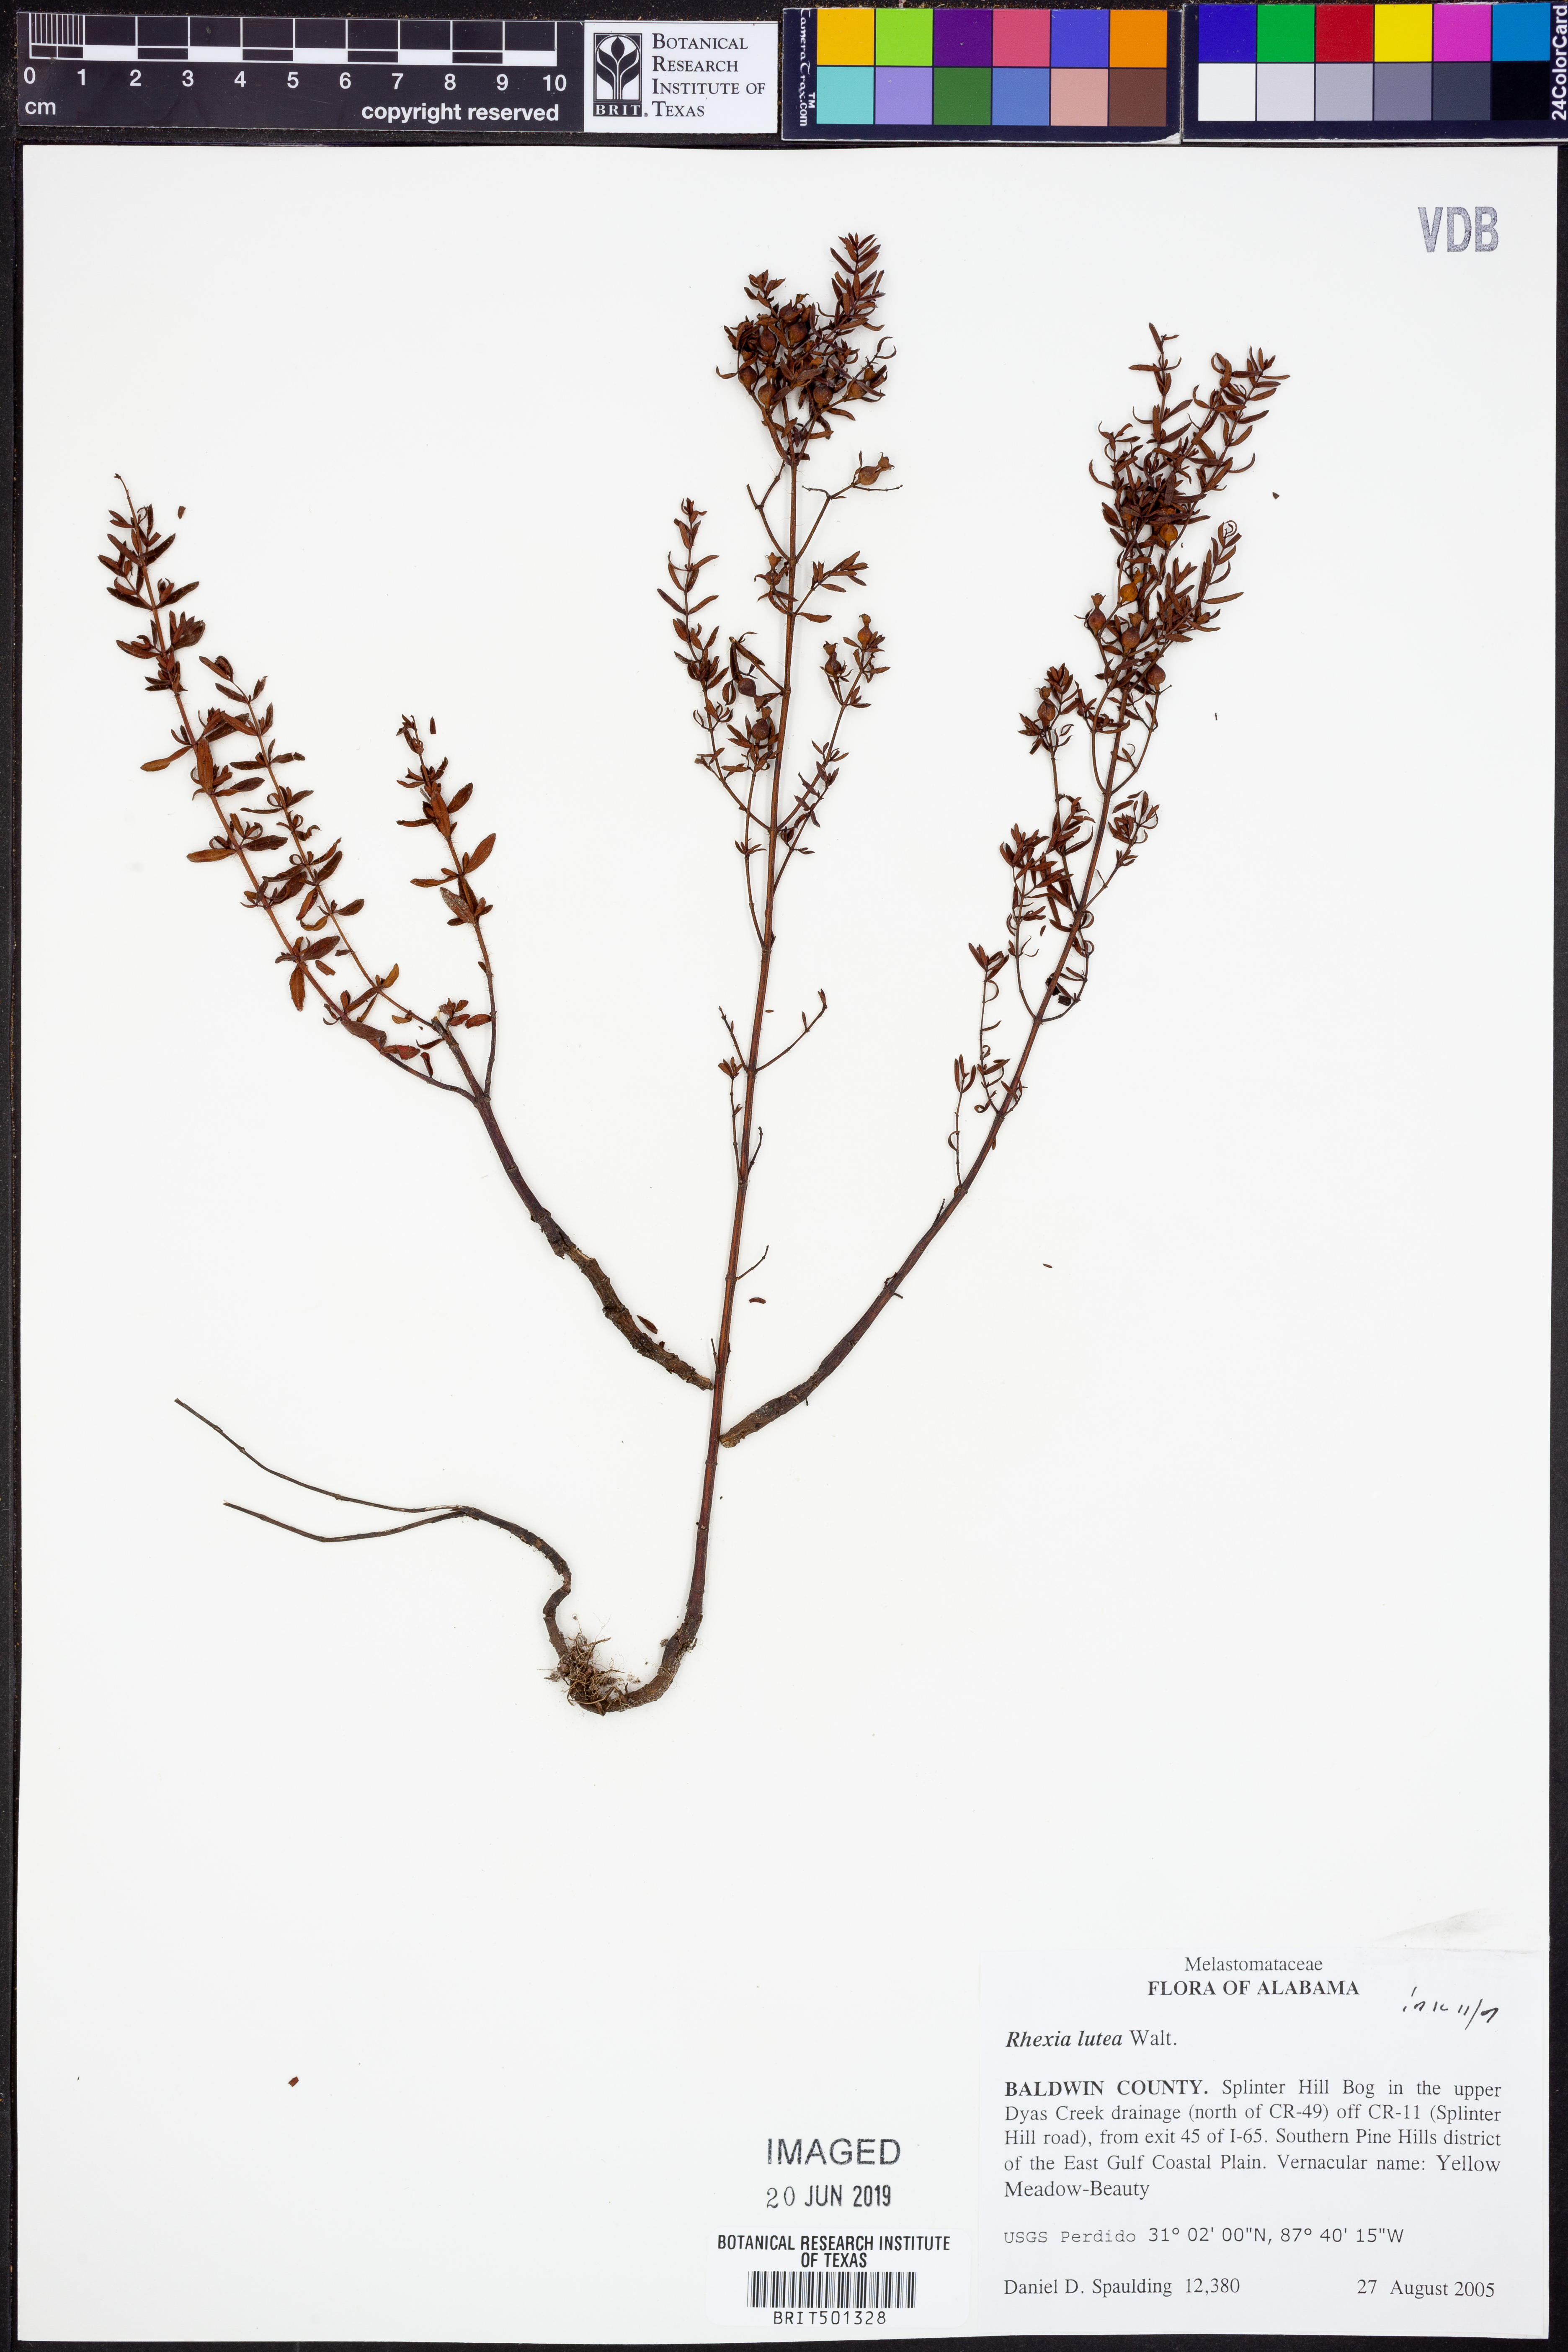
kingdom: Plantae
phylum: Tracheophyta
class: Magnoliopsida
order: Myrtales
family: Melastomataceae
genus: Rhexia
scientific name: Rhexia lutea
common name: Golden meadow-beauty
